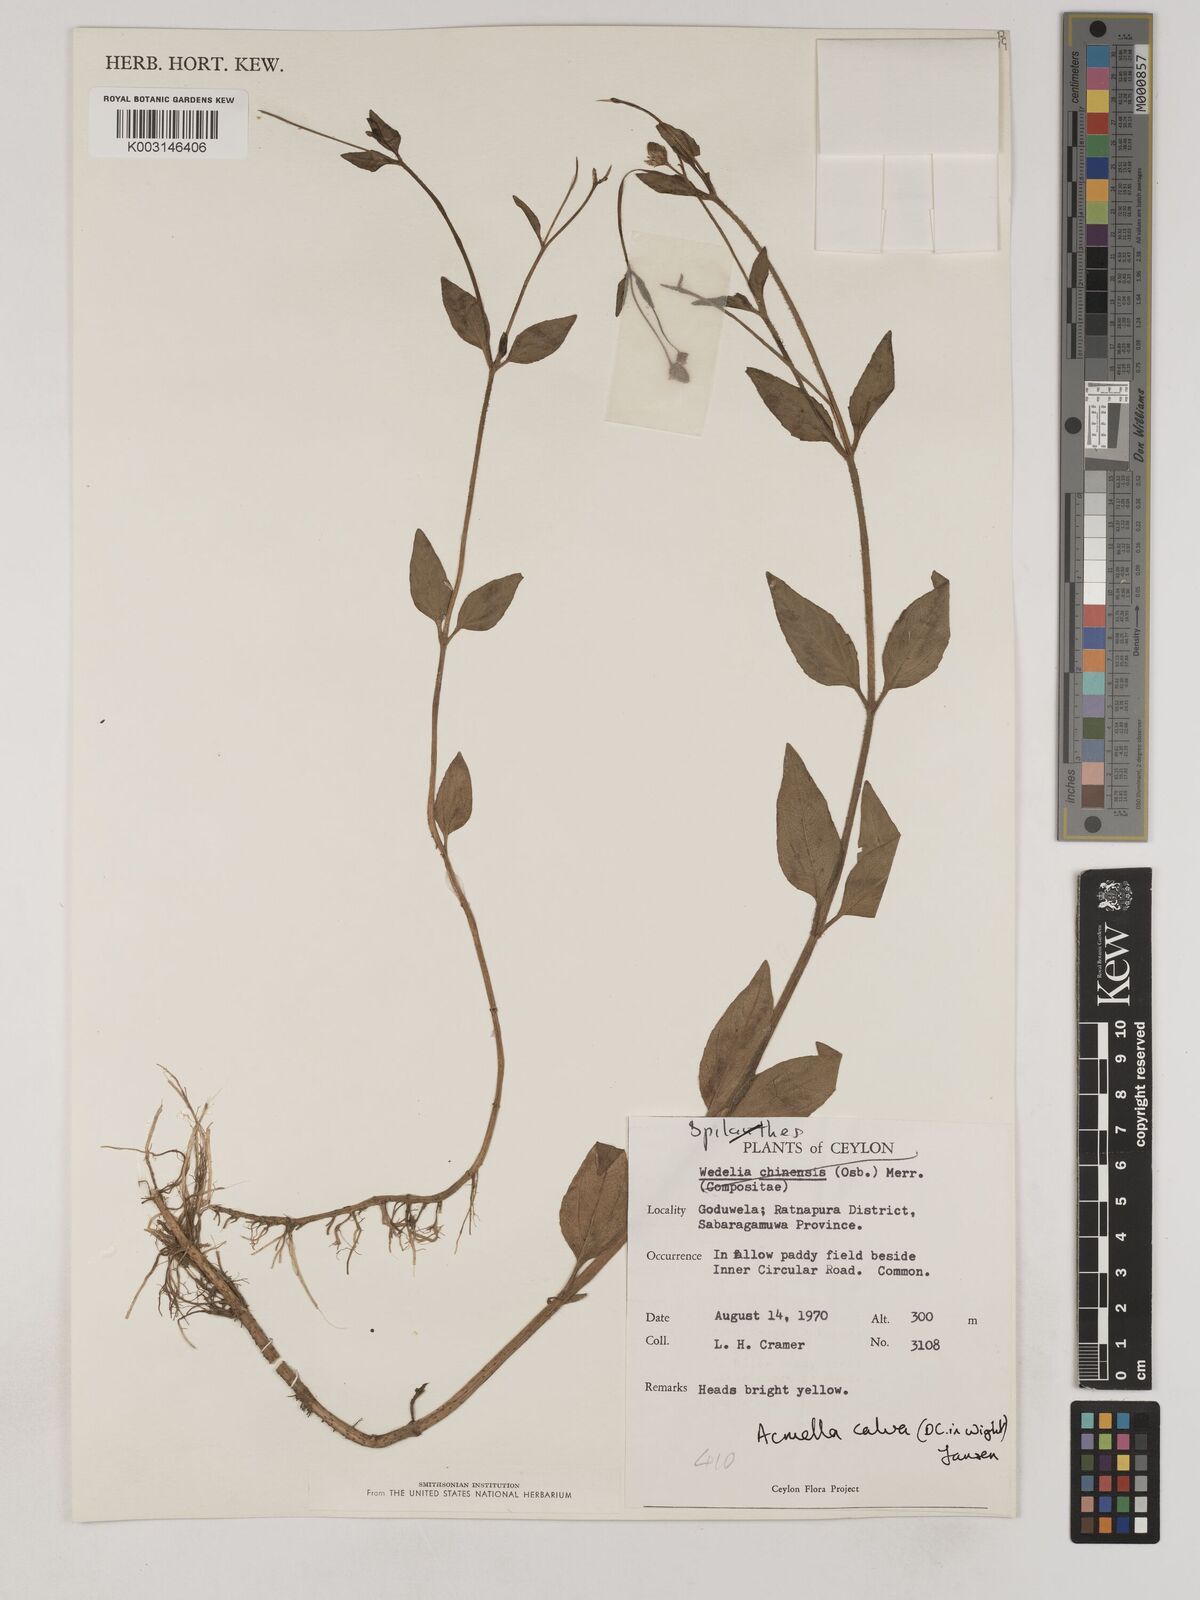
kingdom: Plantae
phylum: Tracheophyta
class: Magnoliopsida
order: Asterales
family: Asteraceae
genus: Acmella
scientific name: Acmella calva
